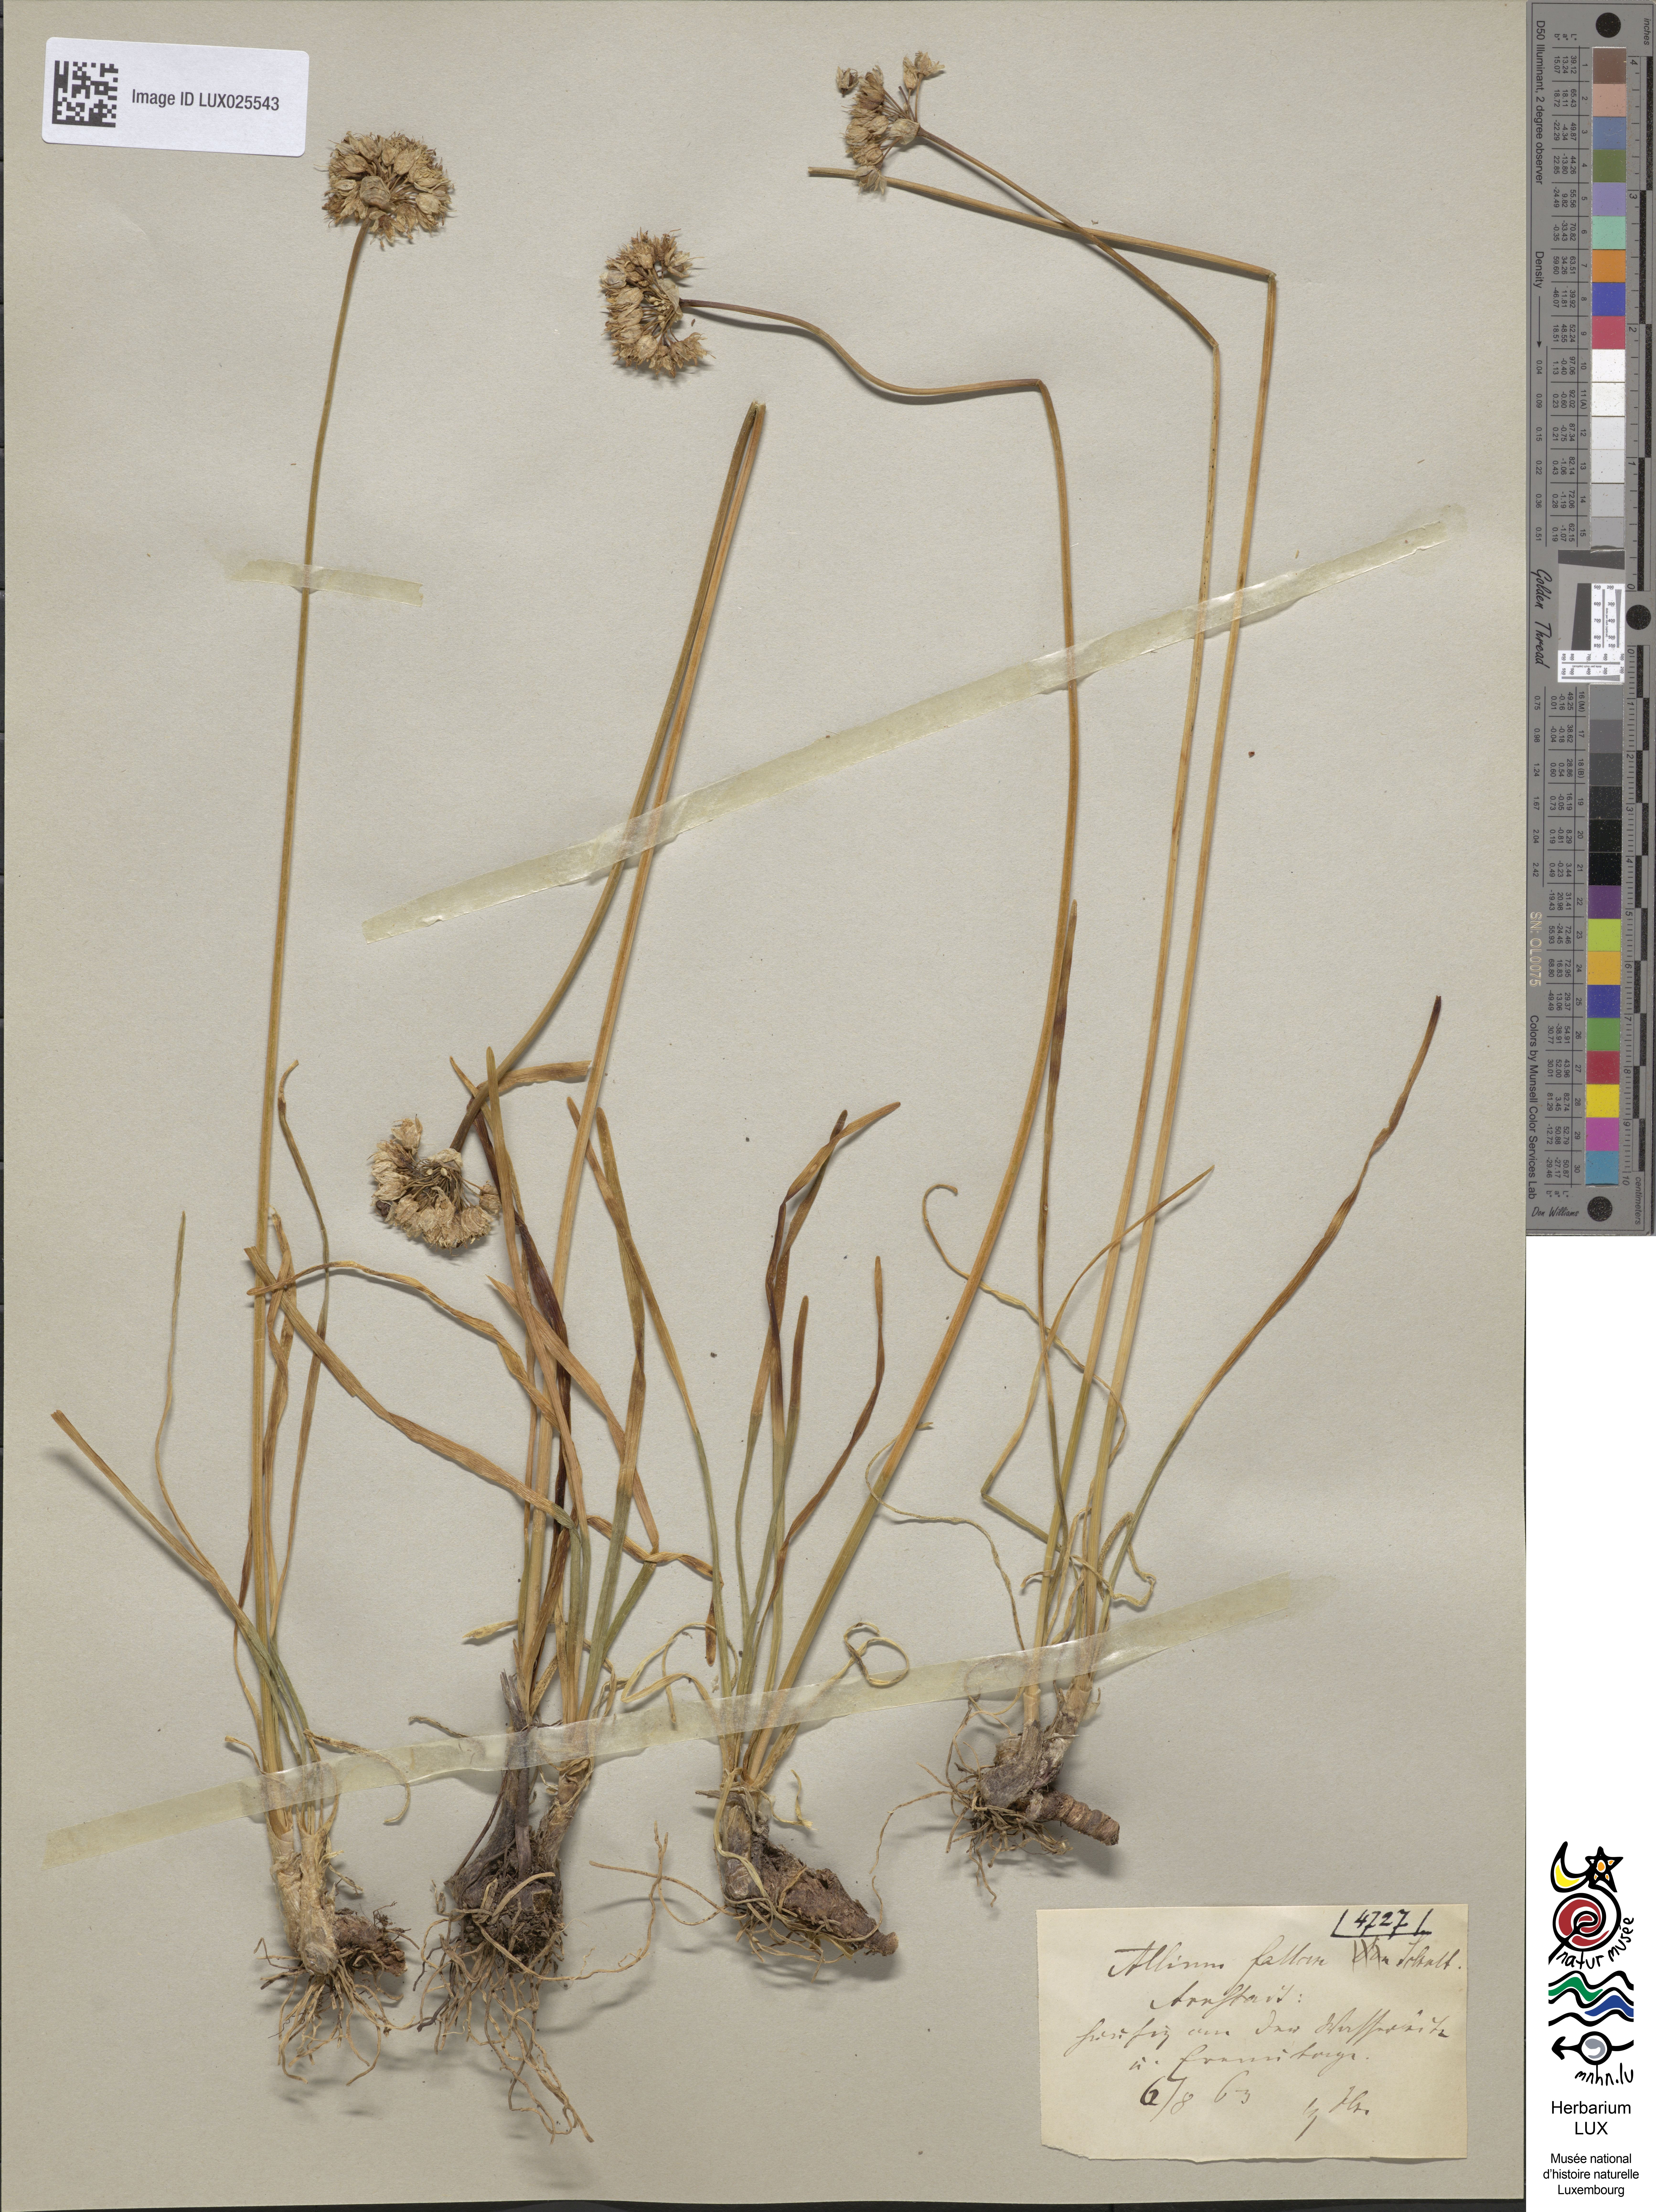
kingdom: Plantae
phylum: Tracheophyta
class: Liliopsida
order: Asparagales
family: Amaryllidaceae
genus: Allium
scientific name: Allium lusitanicum
